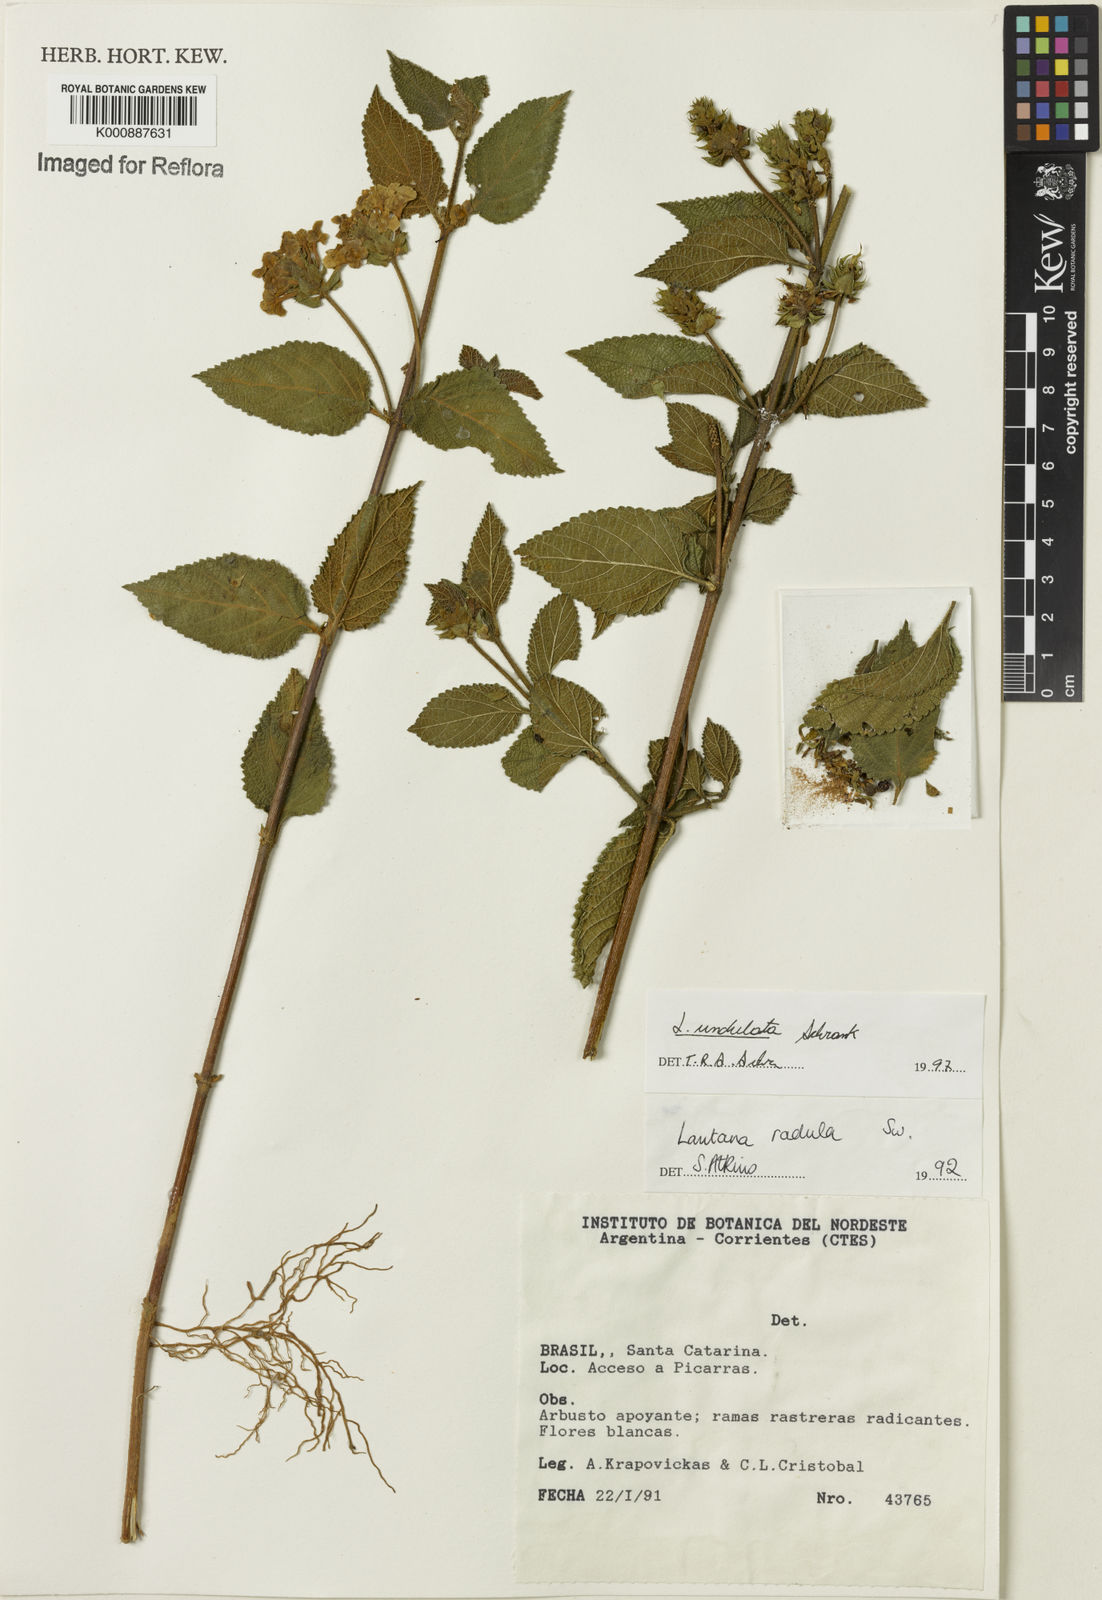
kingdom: Plantae
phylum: Tracheophyta
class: Magnoliopsida
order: Lamiales
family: Verbenaceae
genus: Lantana
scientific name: Lantana undulata
